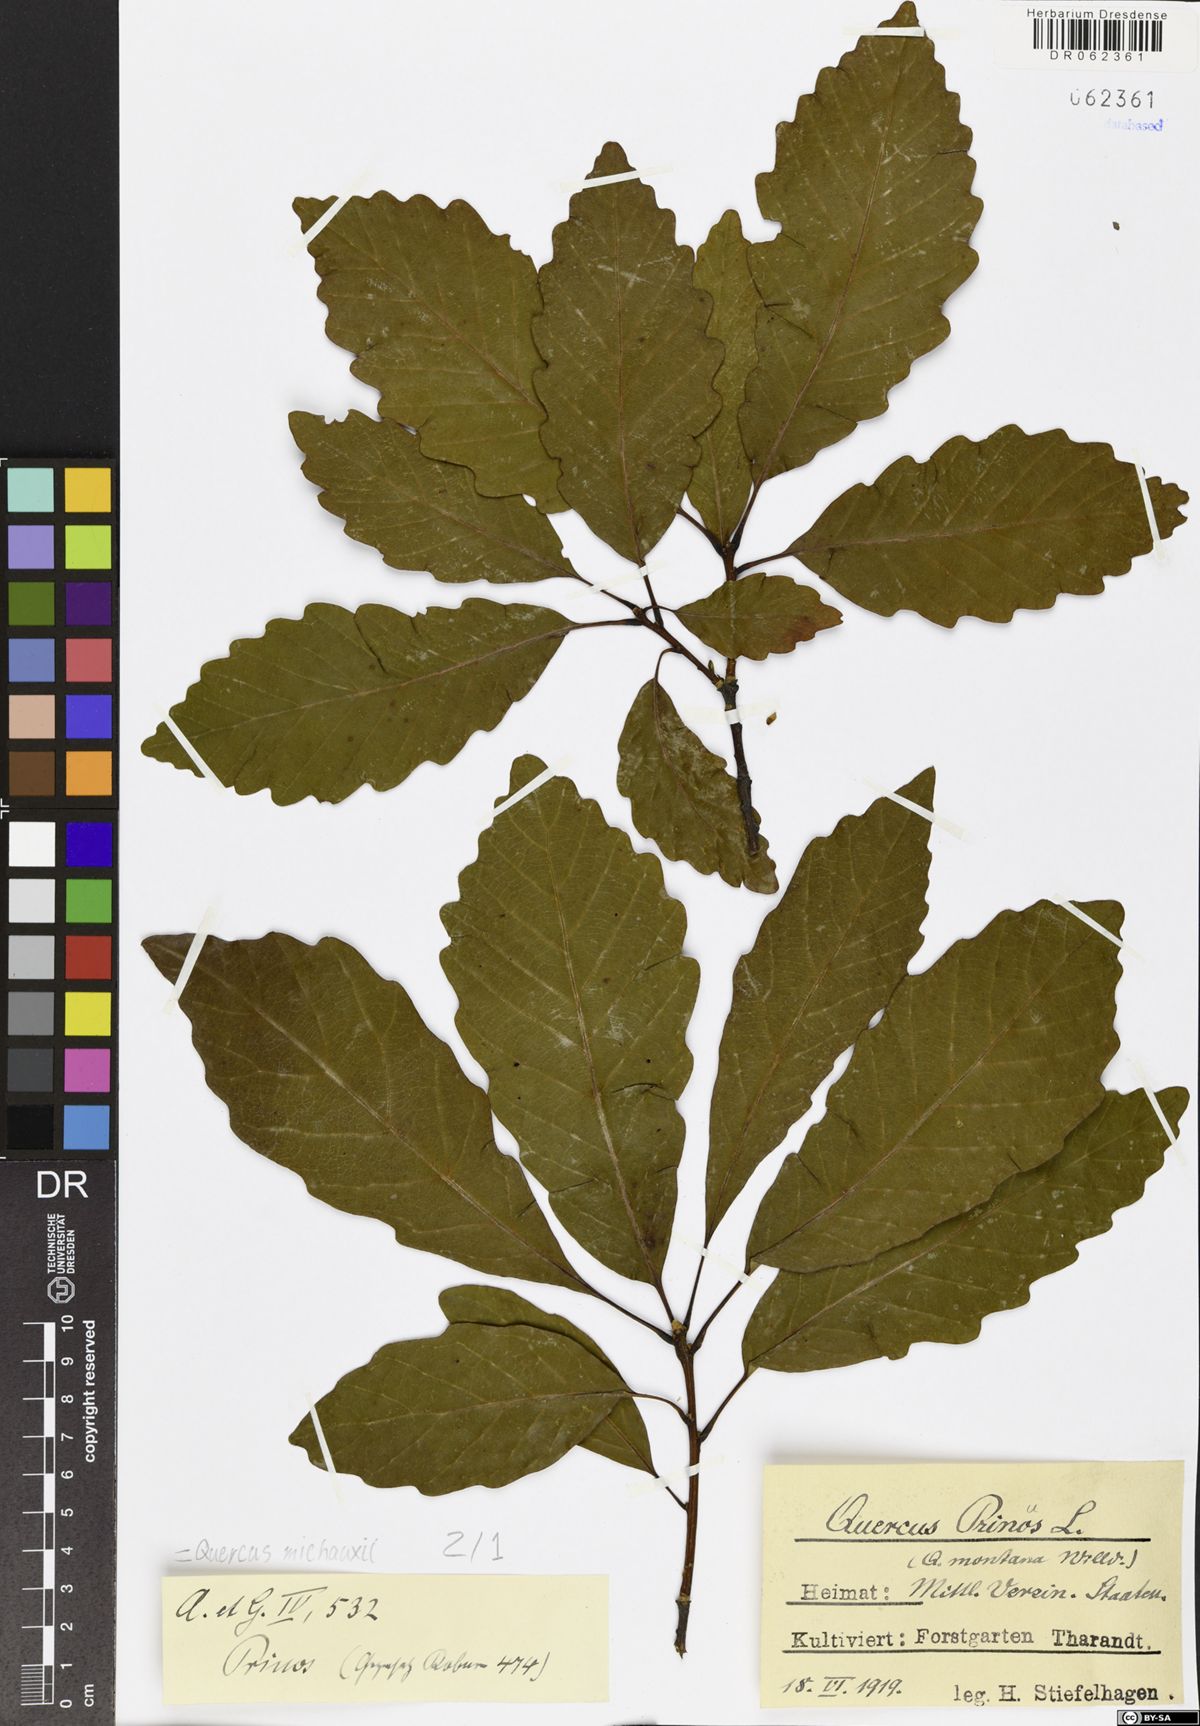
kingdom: Plantae
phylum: Tracheophyta
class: Magnoliopsida
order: Fagales
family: Fagaceae
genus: Quercus
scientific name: Quercus michauxii
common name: Swamp chestnut oak
